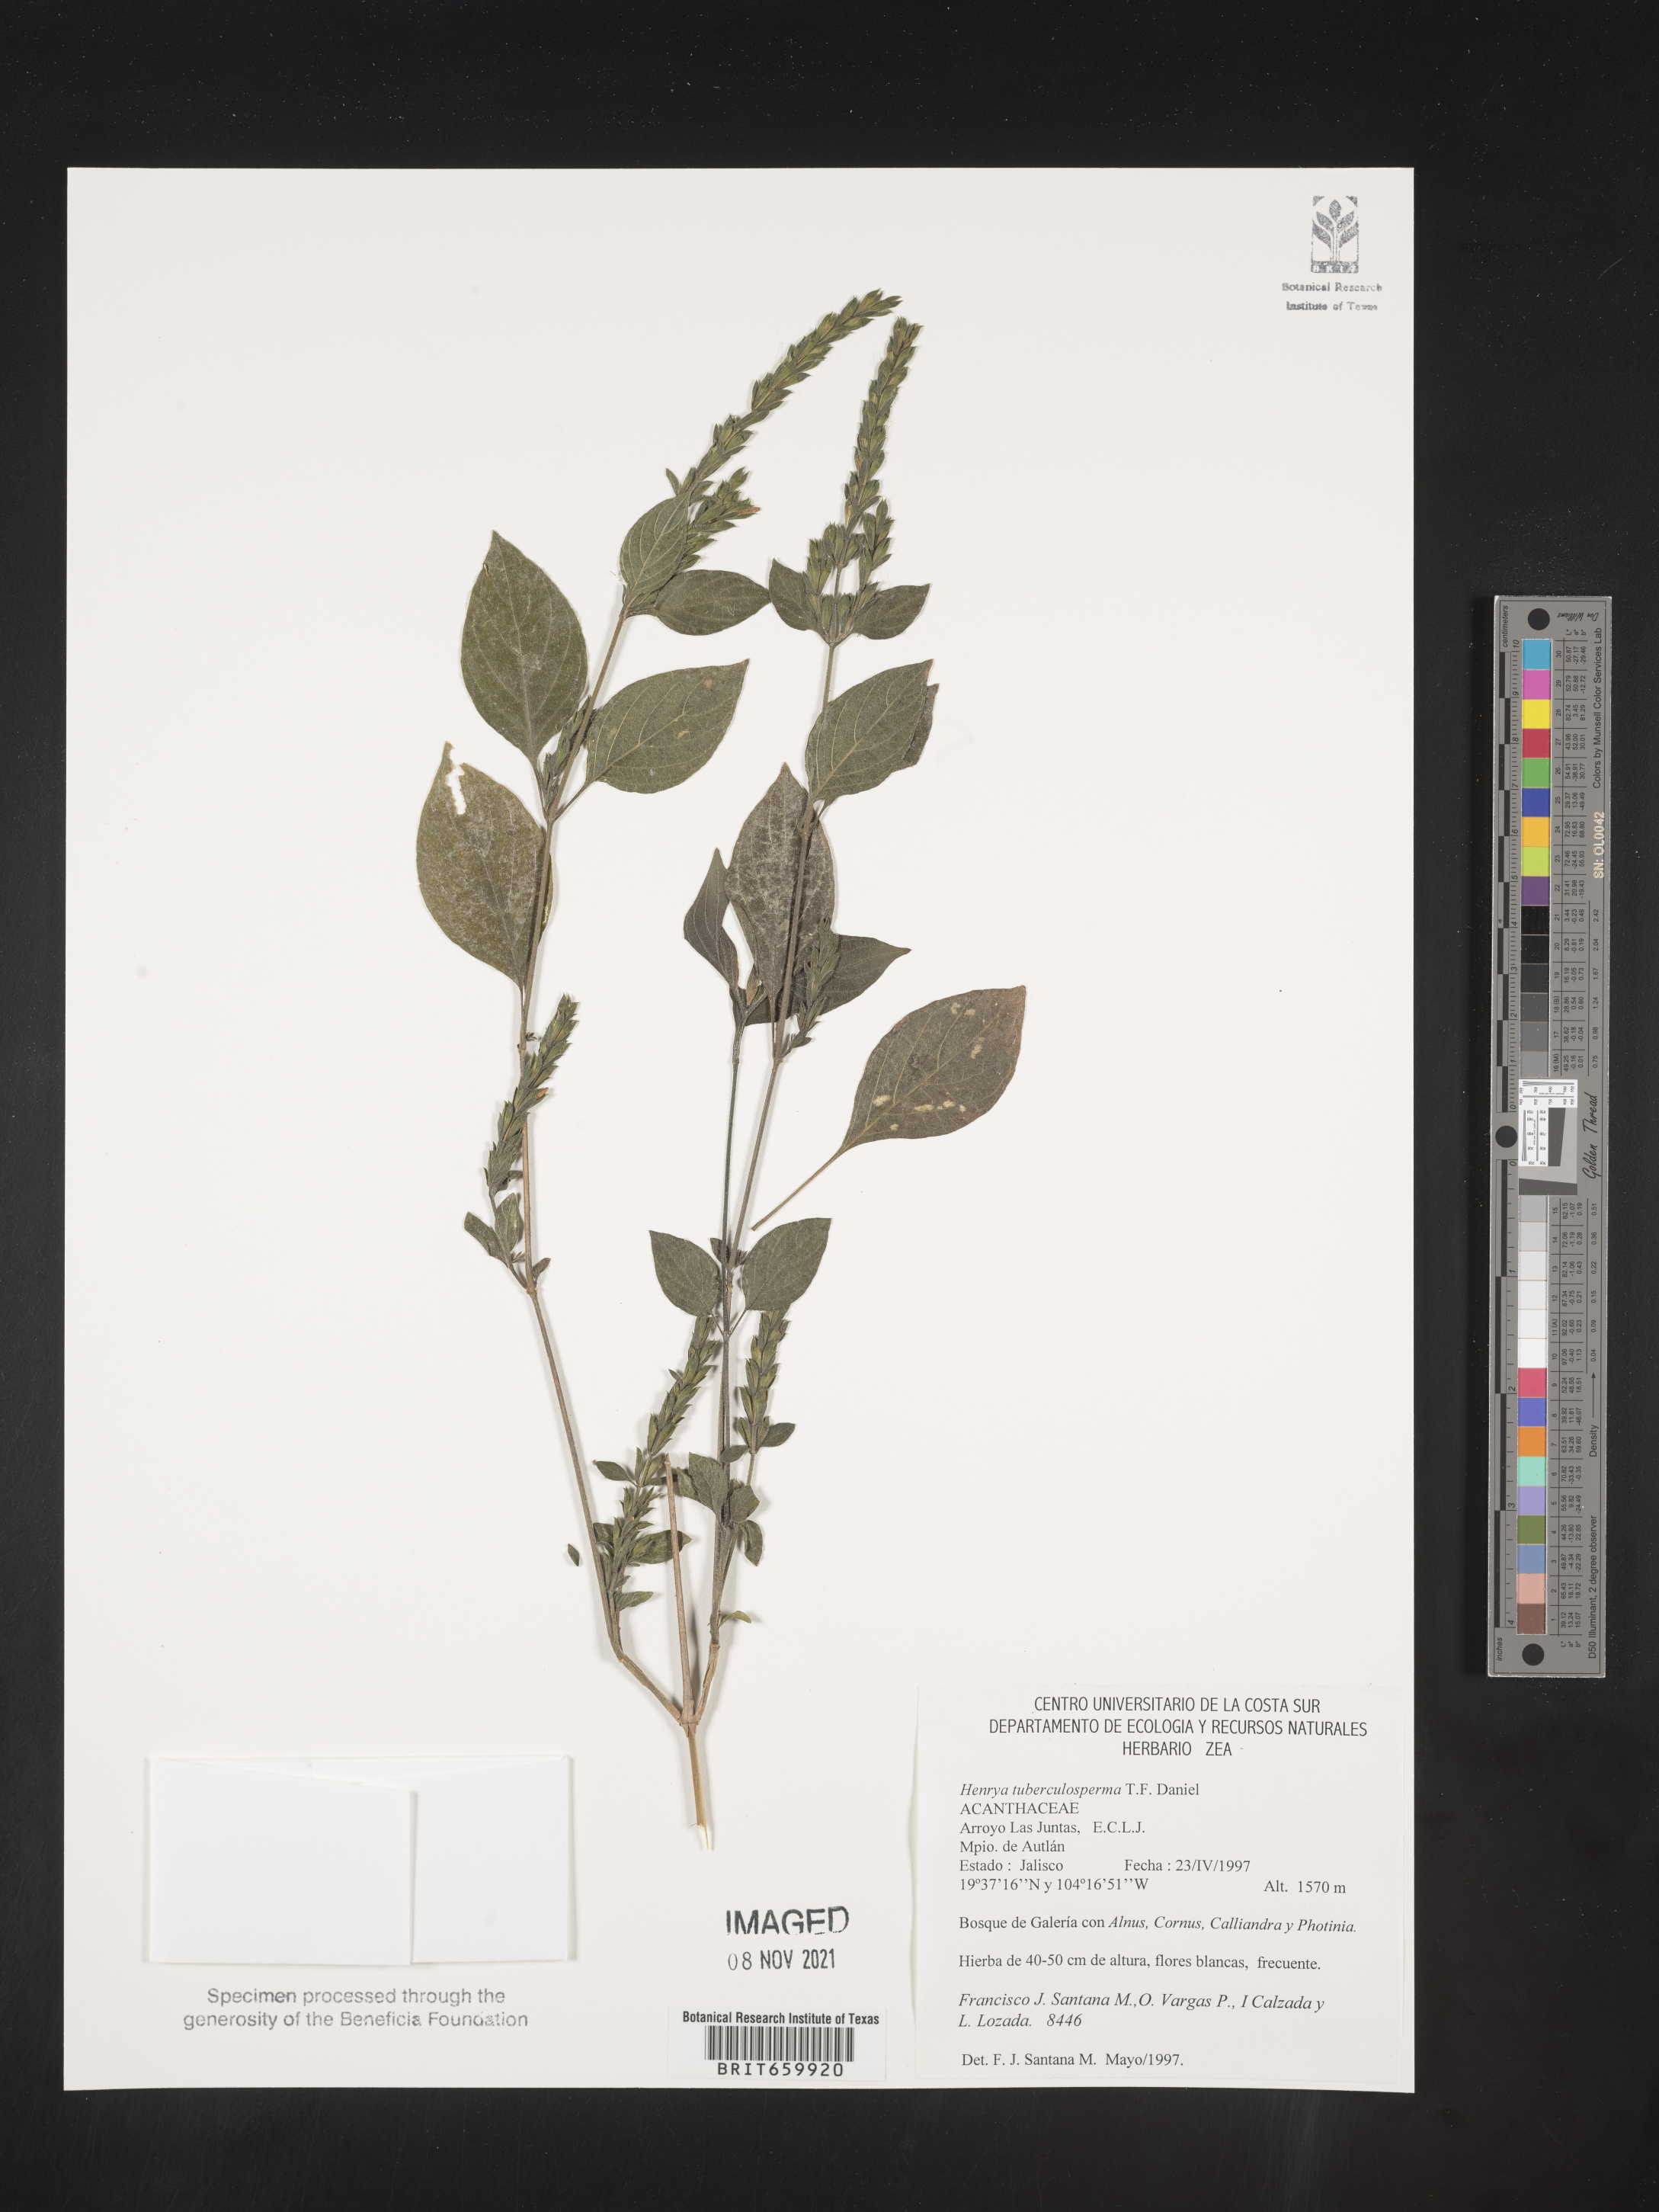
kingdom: Plantae
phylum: Tracheophyta
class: Magnoliopsida
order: Lamiales
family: Acanthaceae
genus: Henrya
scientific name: Henrya
